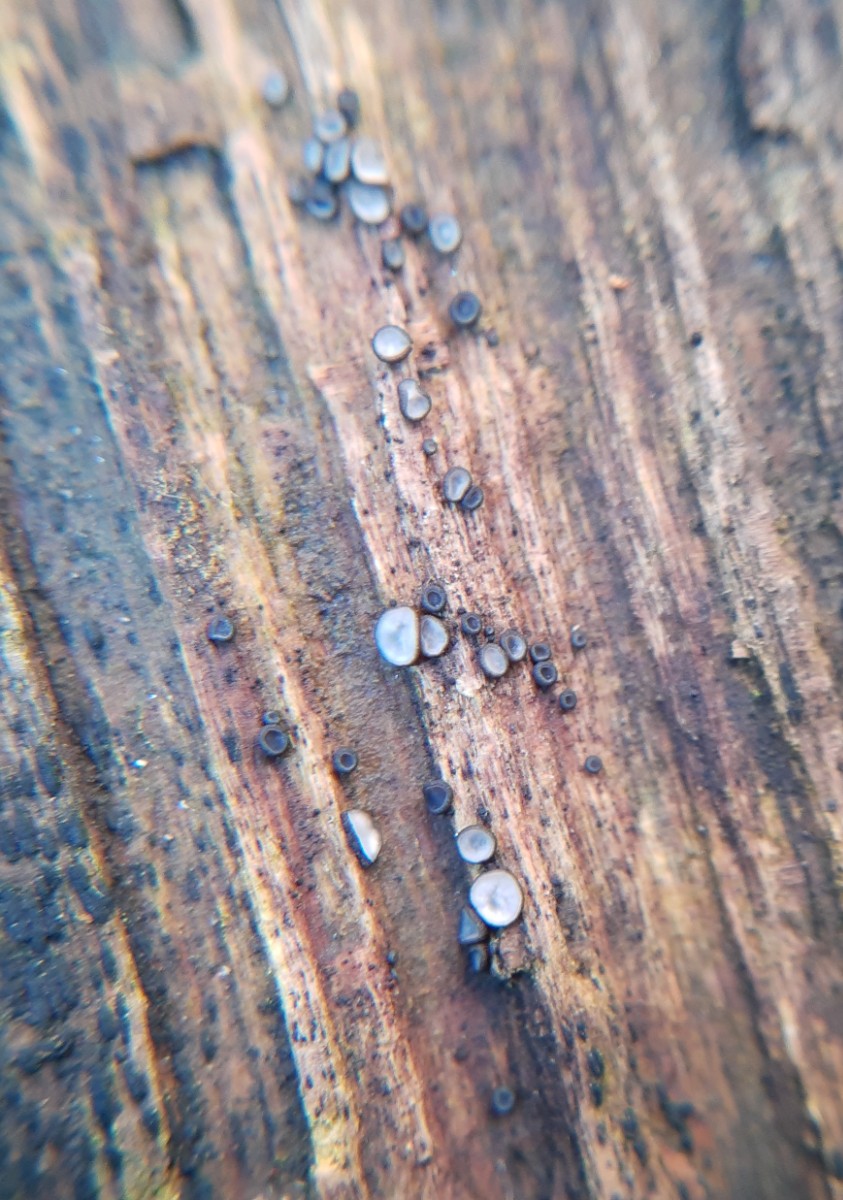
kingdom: Fungi
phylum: Ascomycota
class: Leotiomycetes
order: Helotiales
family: Mollisiaceae
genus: Mollisia
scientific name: Mollisia
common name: gråskive
